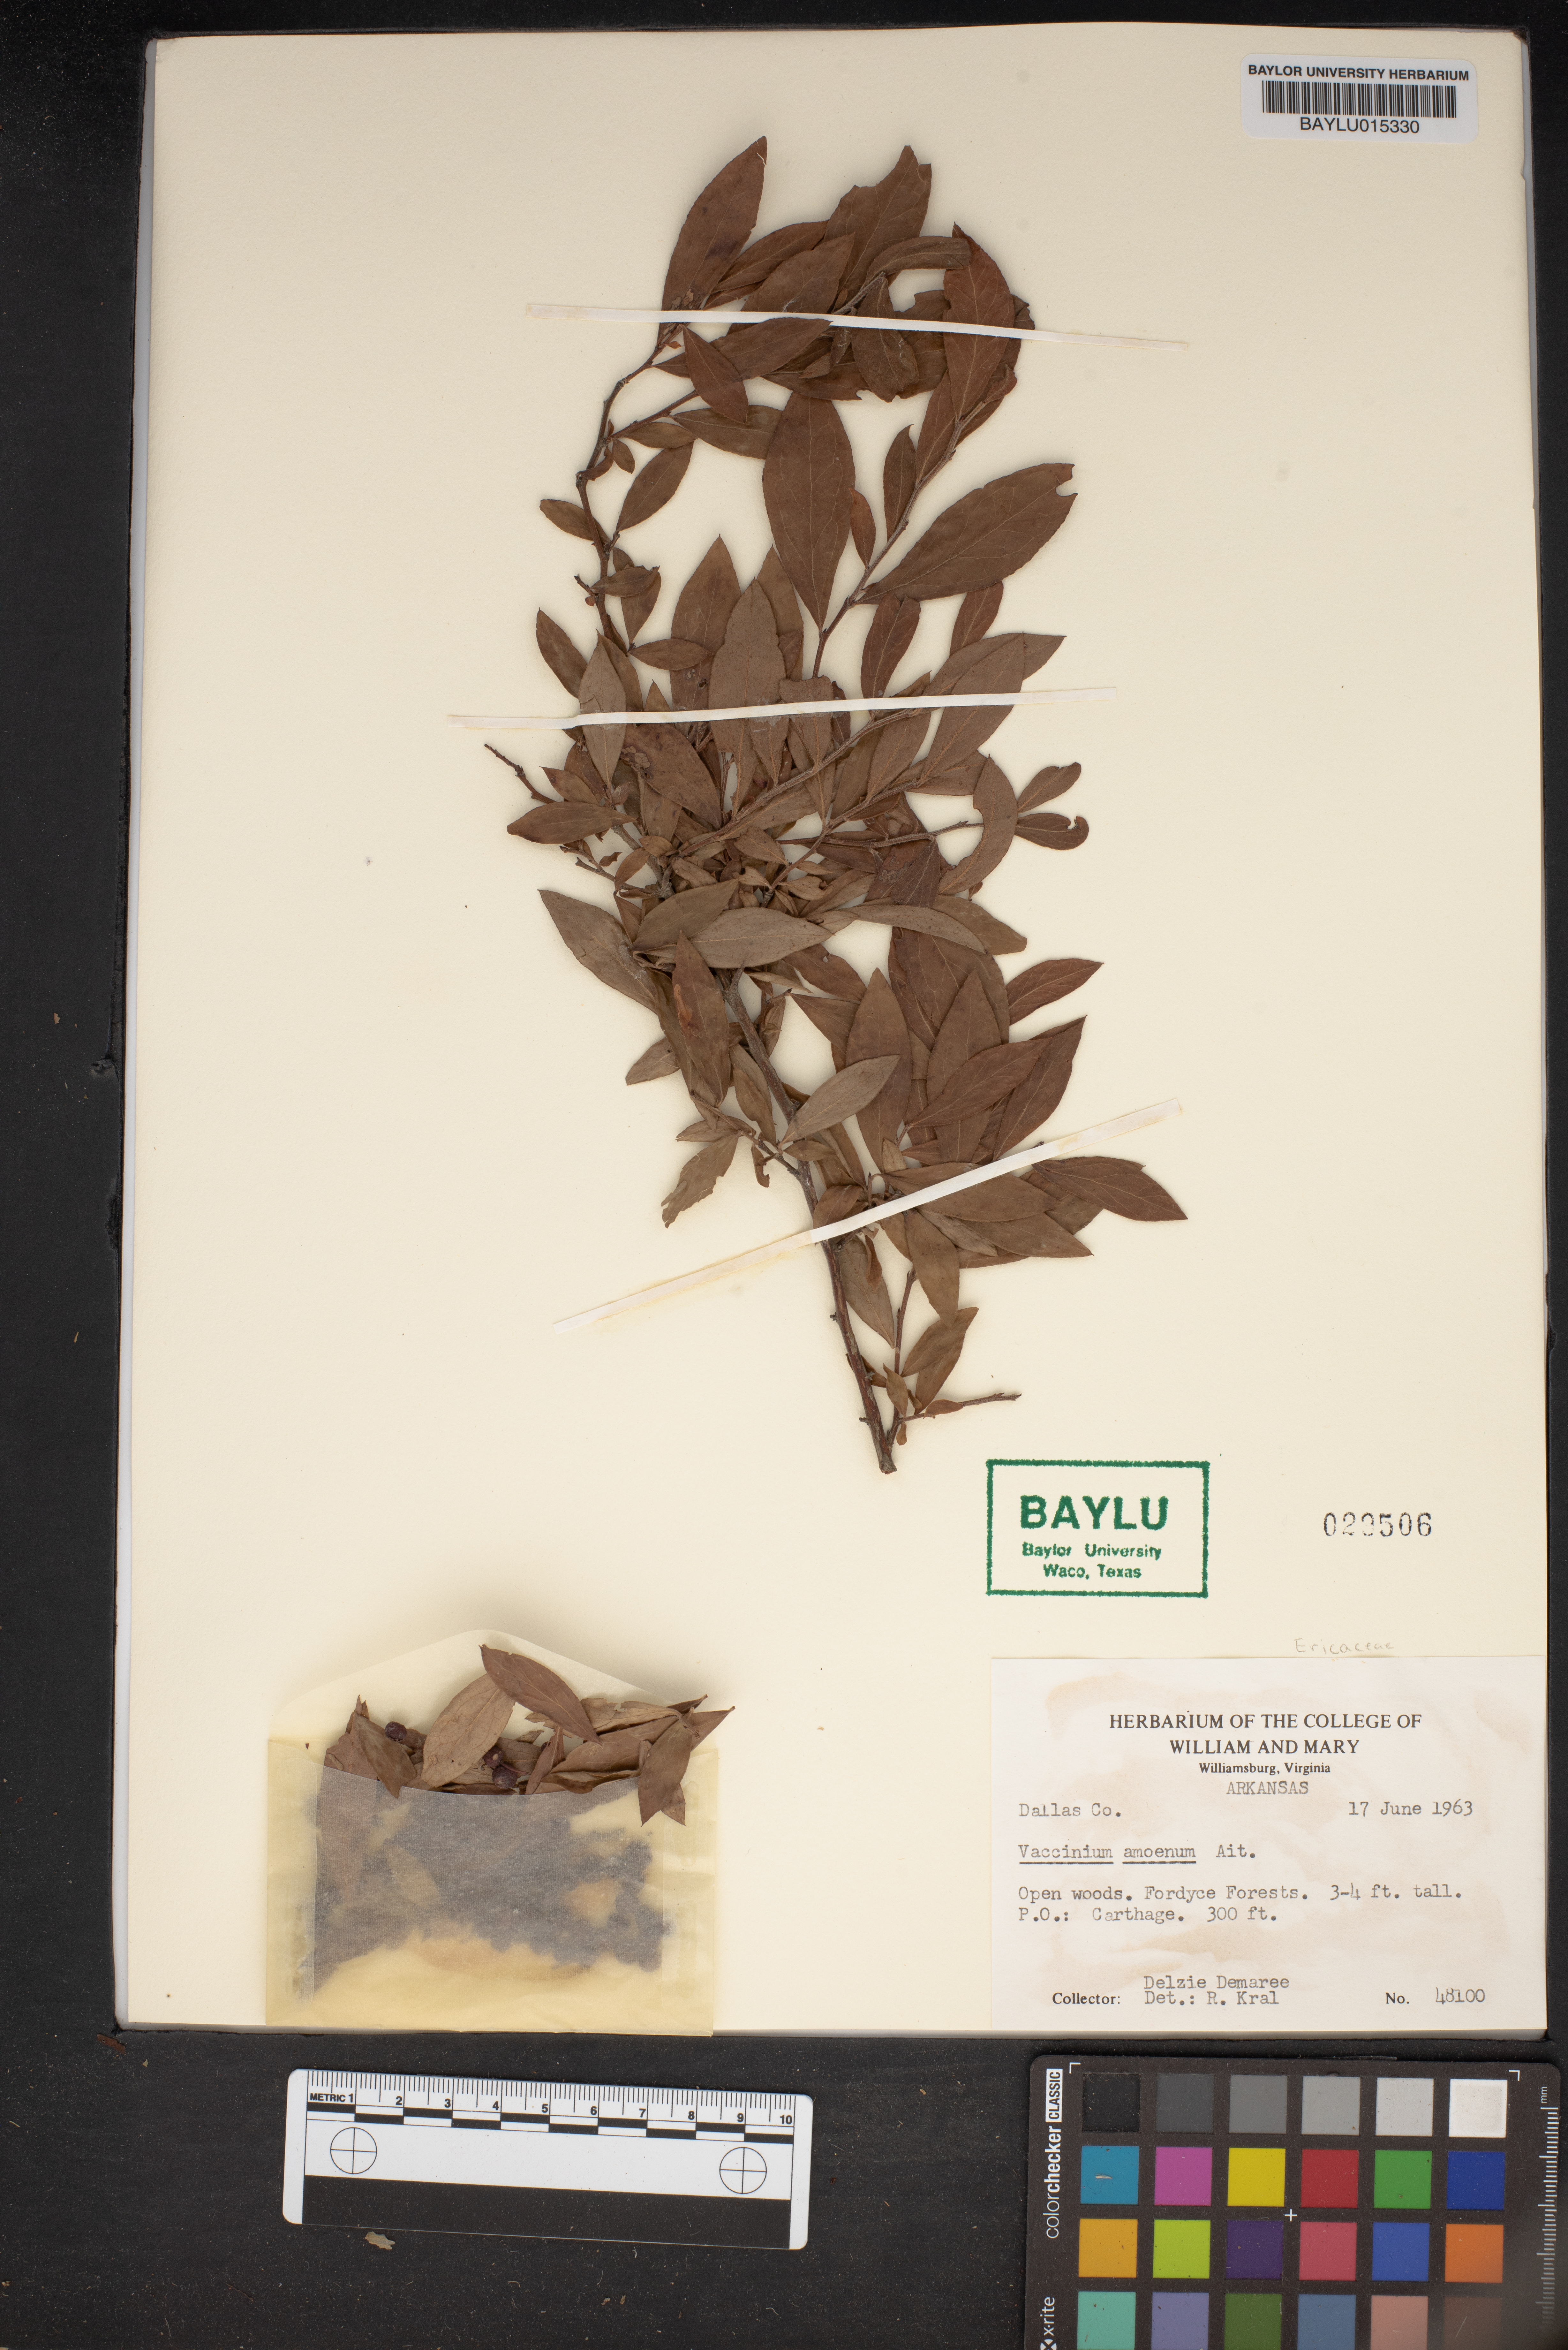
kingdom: Plantae
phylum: Tracheophyta
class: Magnoliopsida
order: Ericales
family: Ericaceae
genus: Vaccinium
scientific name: Vaccinium corymbosum
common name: Blueberry
